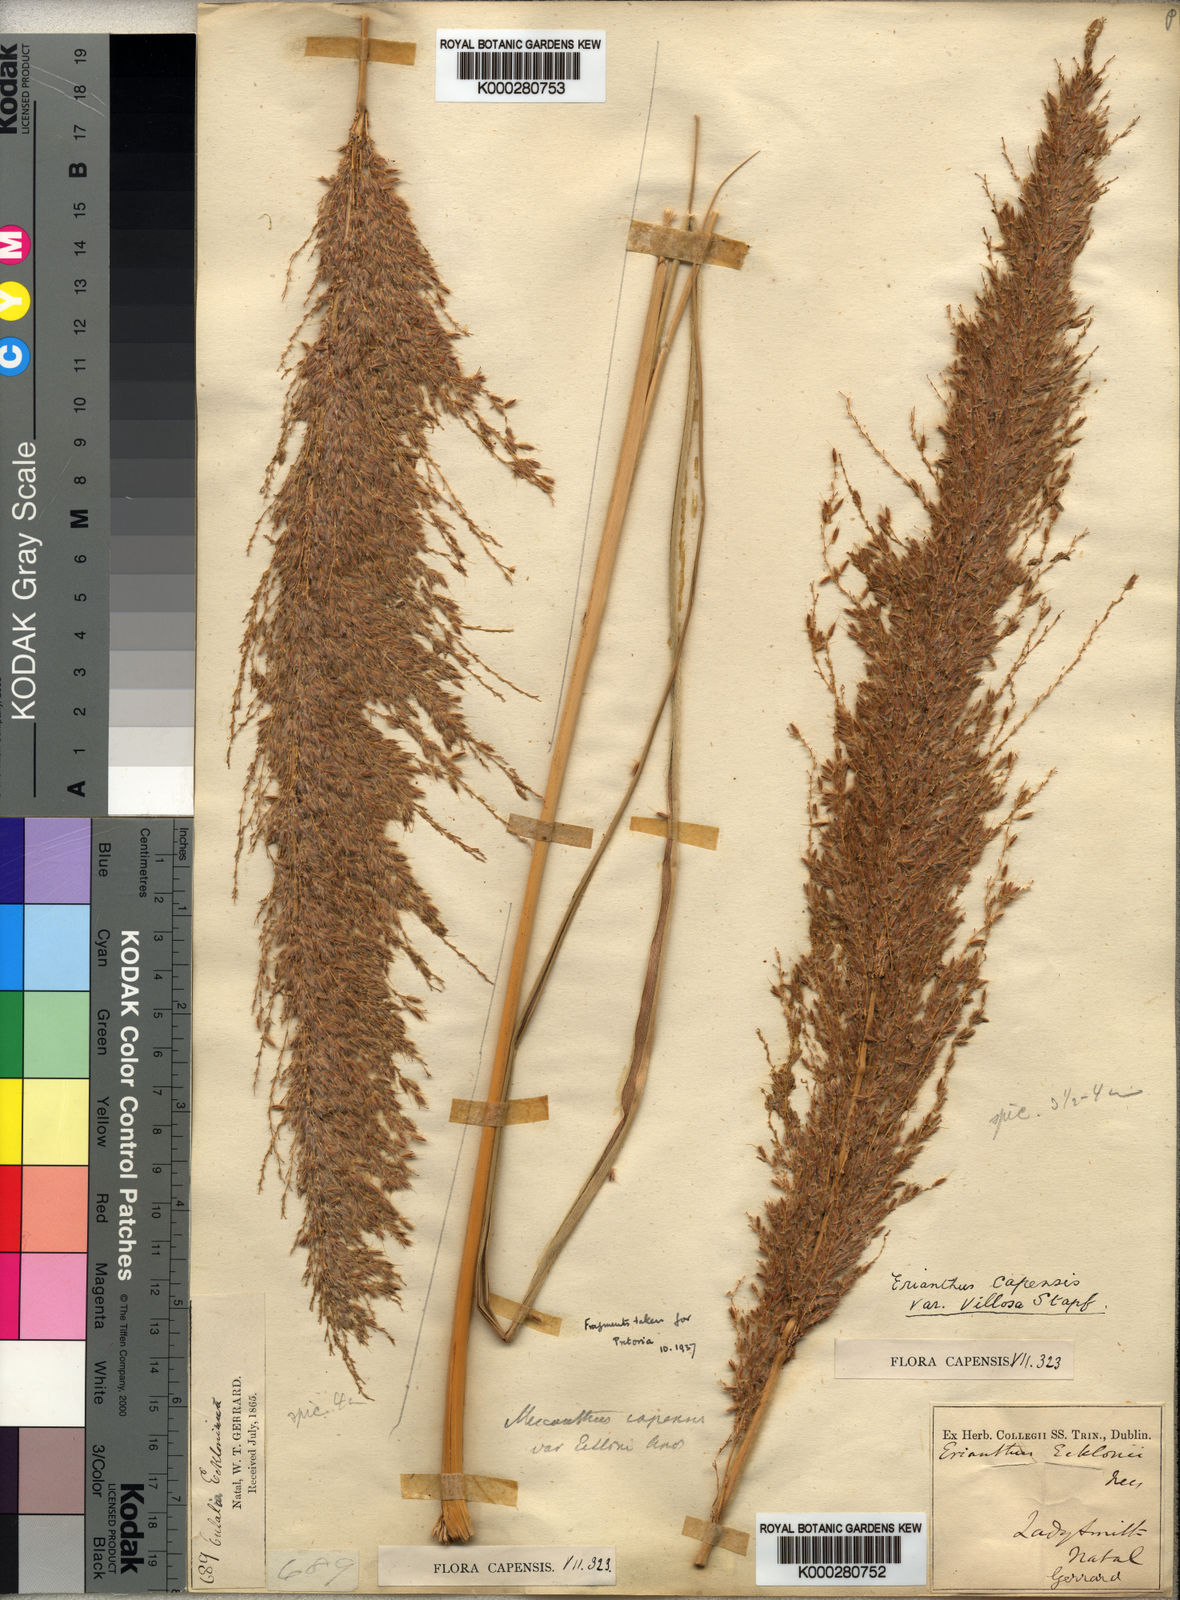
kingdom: Plantae
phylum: Tracheophyta
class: Liliopsida
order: Poales
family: Poaceae
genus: Miscanthus
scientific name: Miscanthus ecklonii
